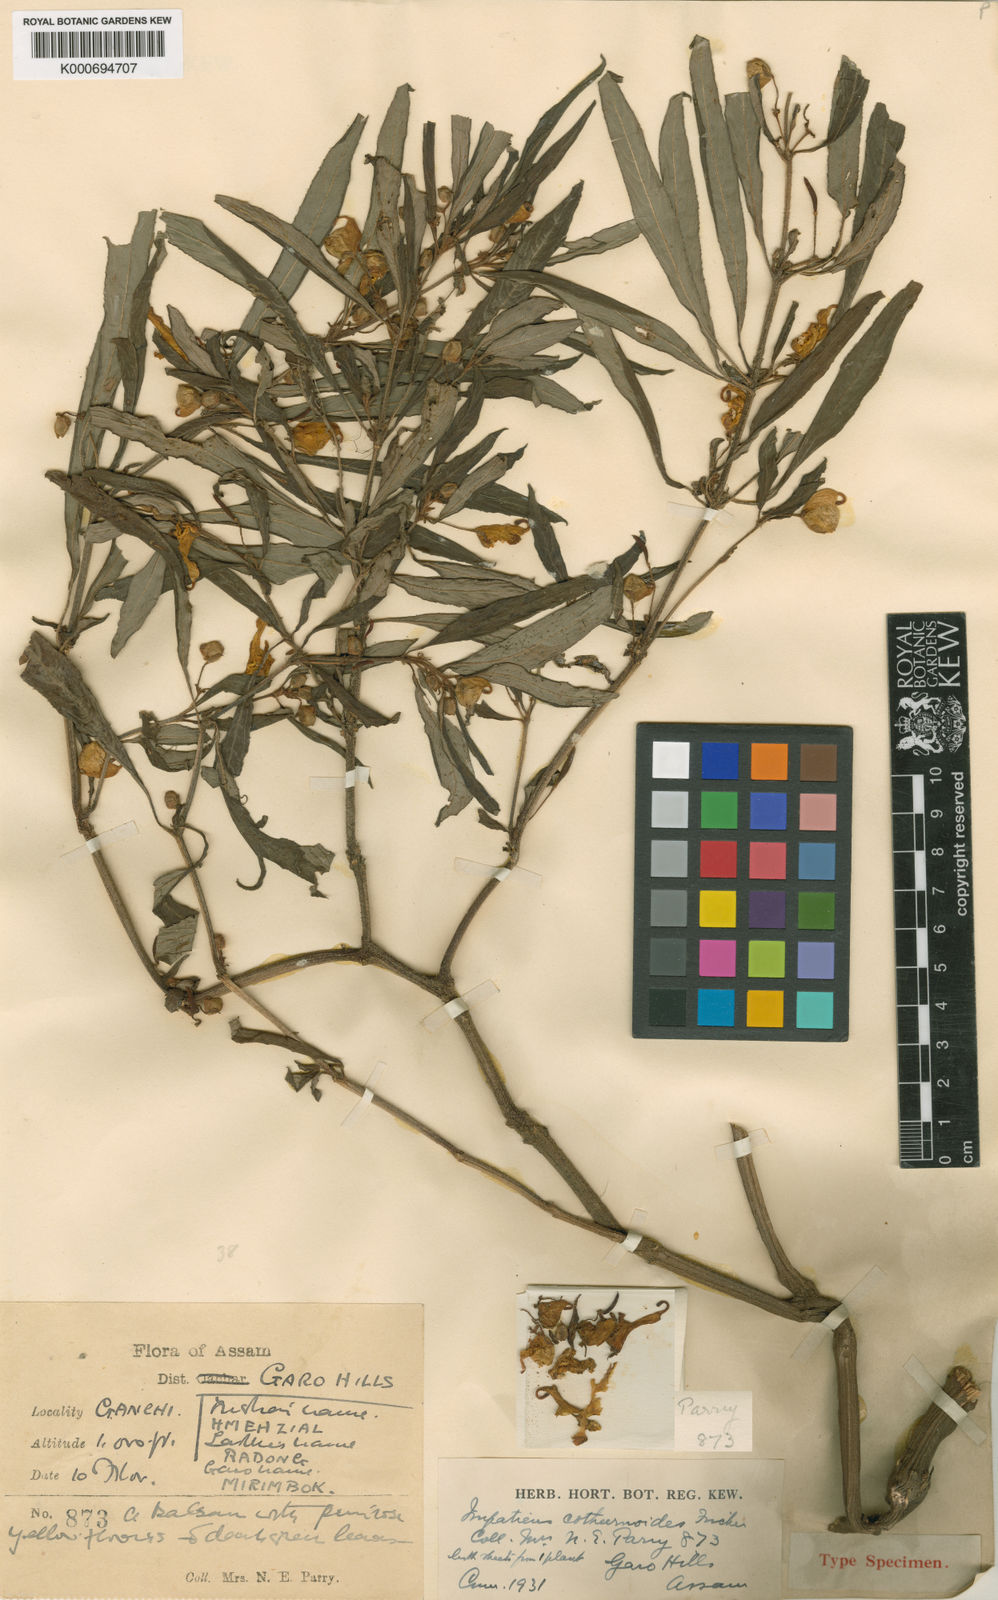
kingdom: Plantae
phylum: Tracheophyta
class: Magnoliopsida
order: Ericales
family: Balsaminaceae
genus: Impatiens
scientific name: Impatiens cothurnoides
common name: The garo balsam
